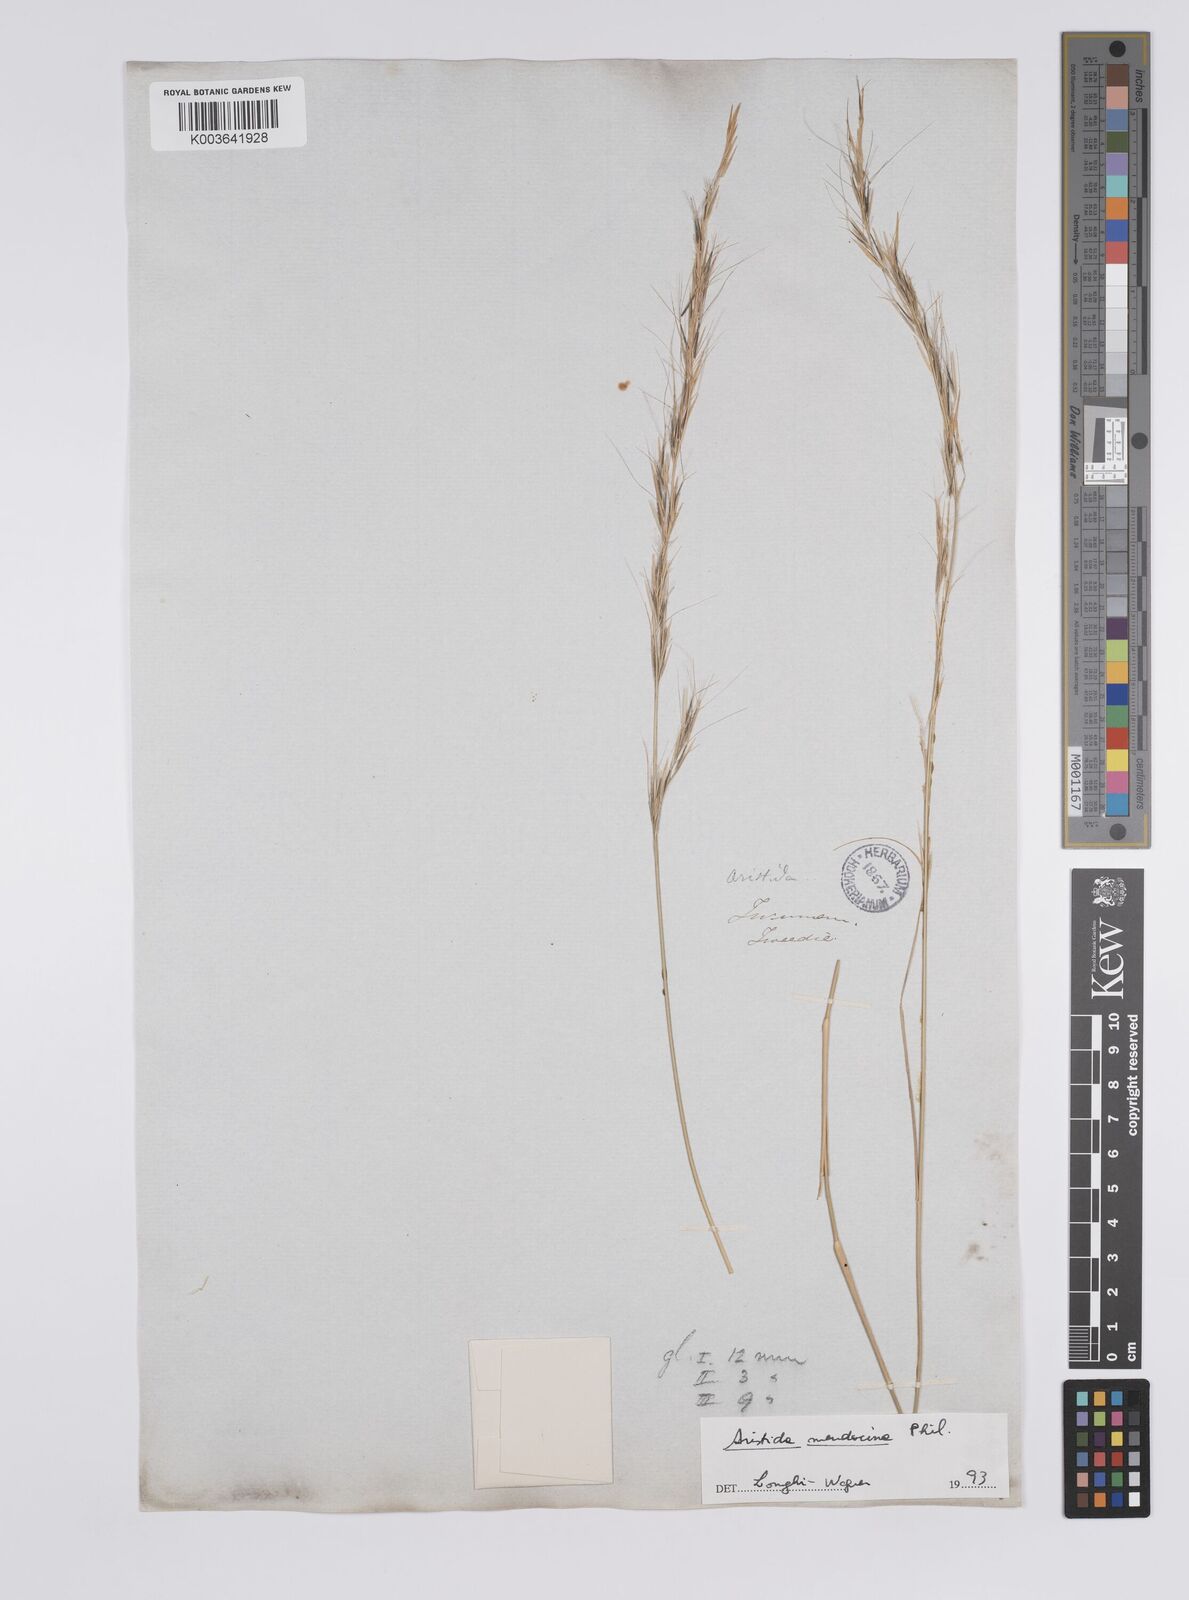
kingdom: Plantae
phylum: Tracheophyta
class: Liliopsida
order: Poales
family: Poaceae
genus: Aristida
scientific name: Aristida mendocina
